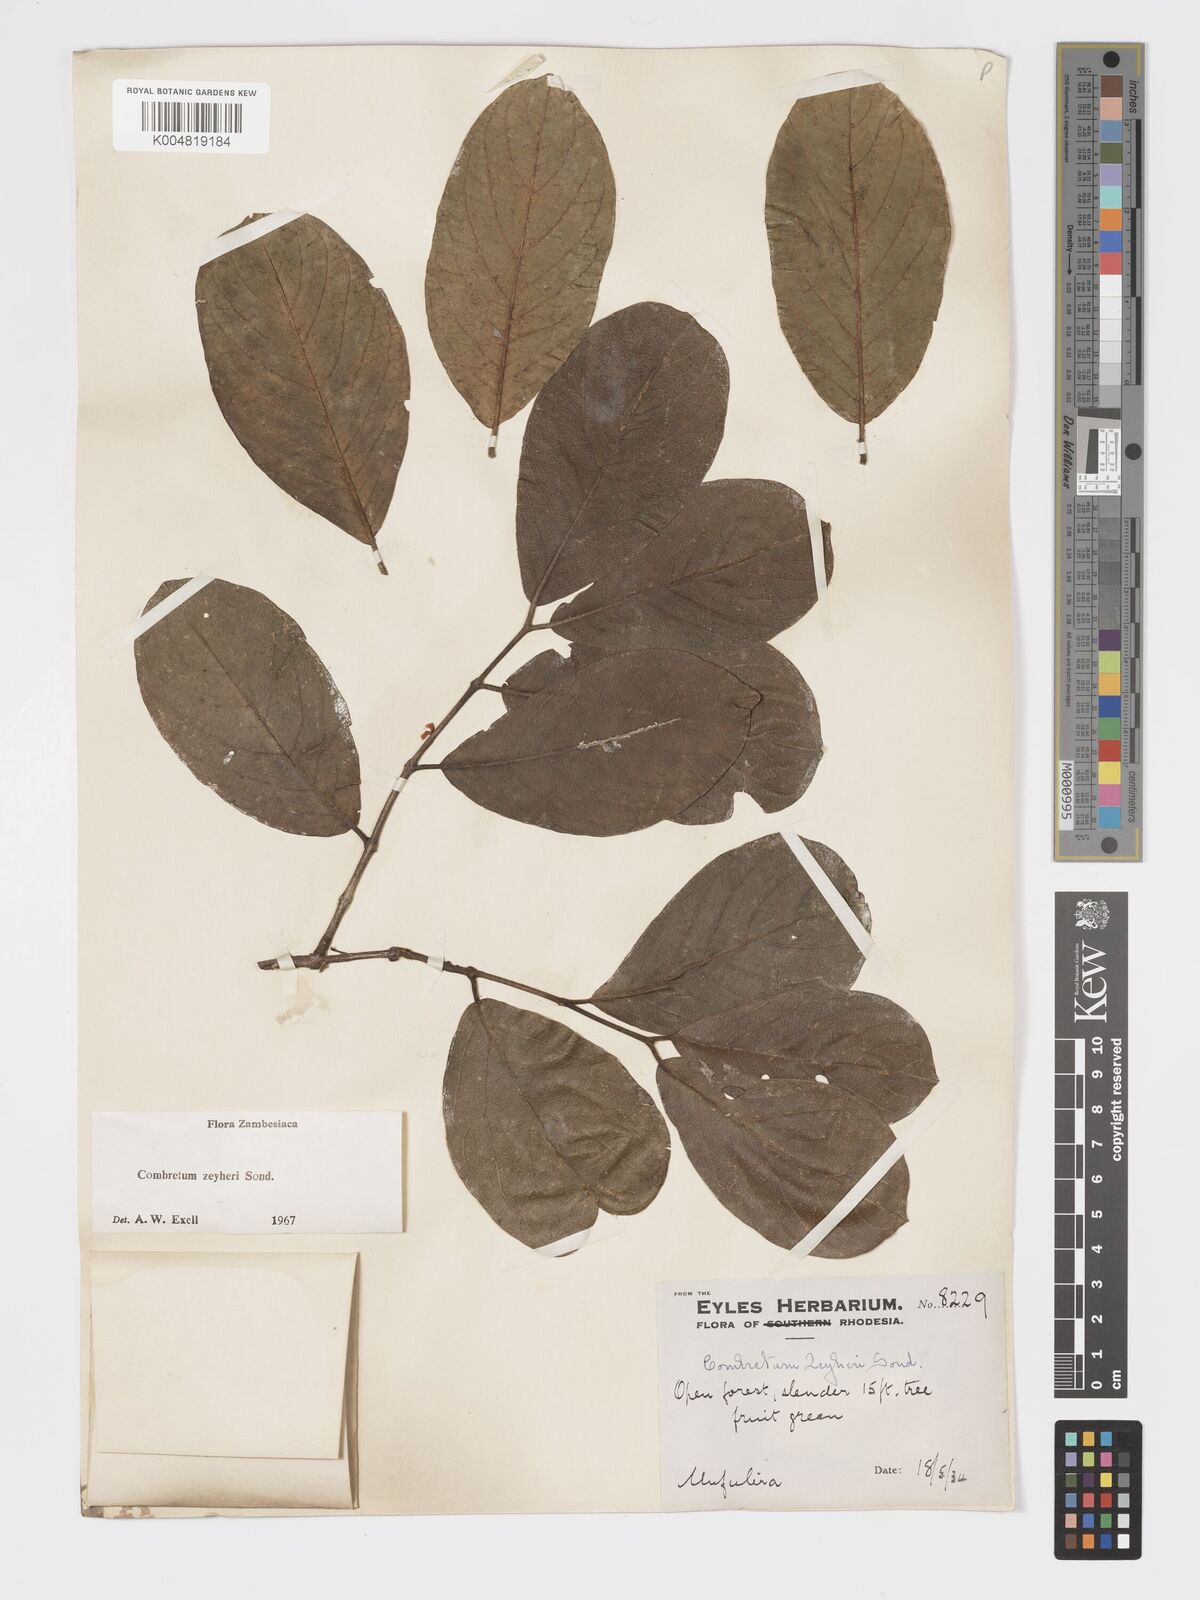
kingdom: Plantae
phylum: Tracheophyta
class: Magnoliopsida
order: Myrtales
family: Combretaceae
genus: Combretum
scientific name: Combretum zeyheri
